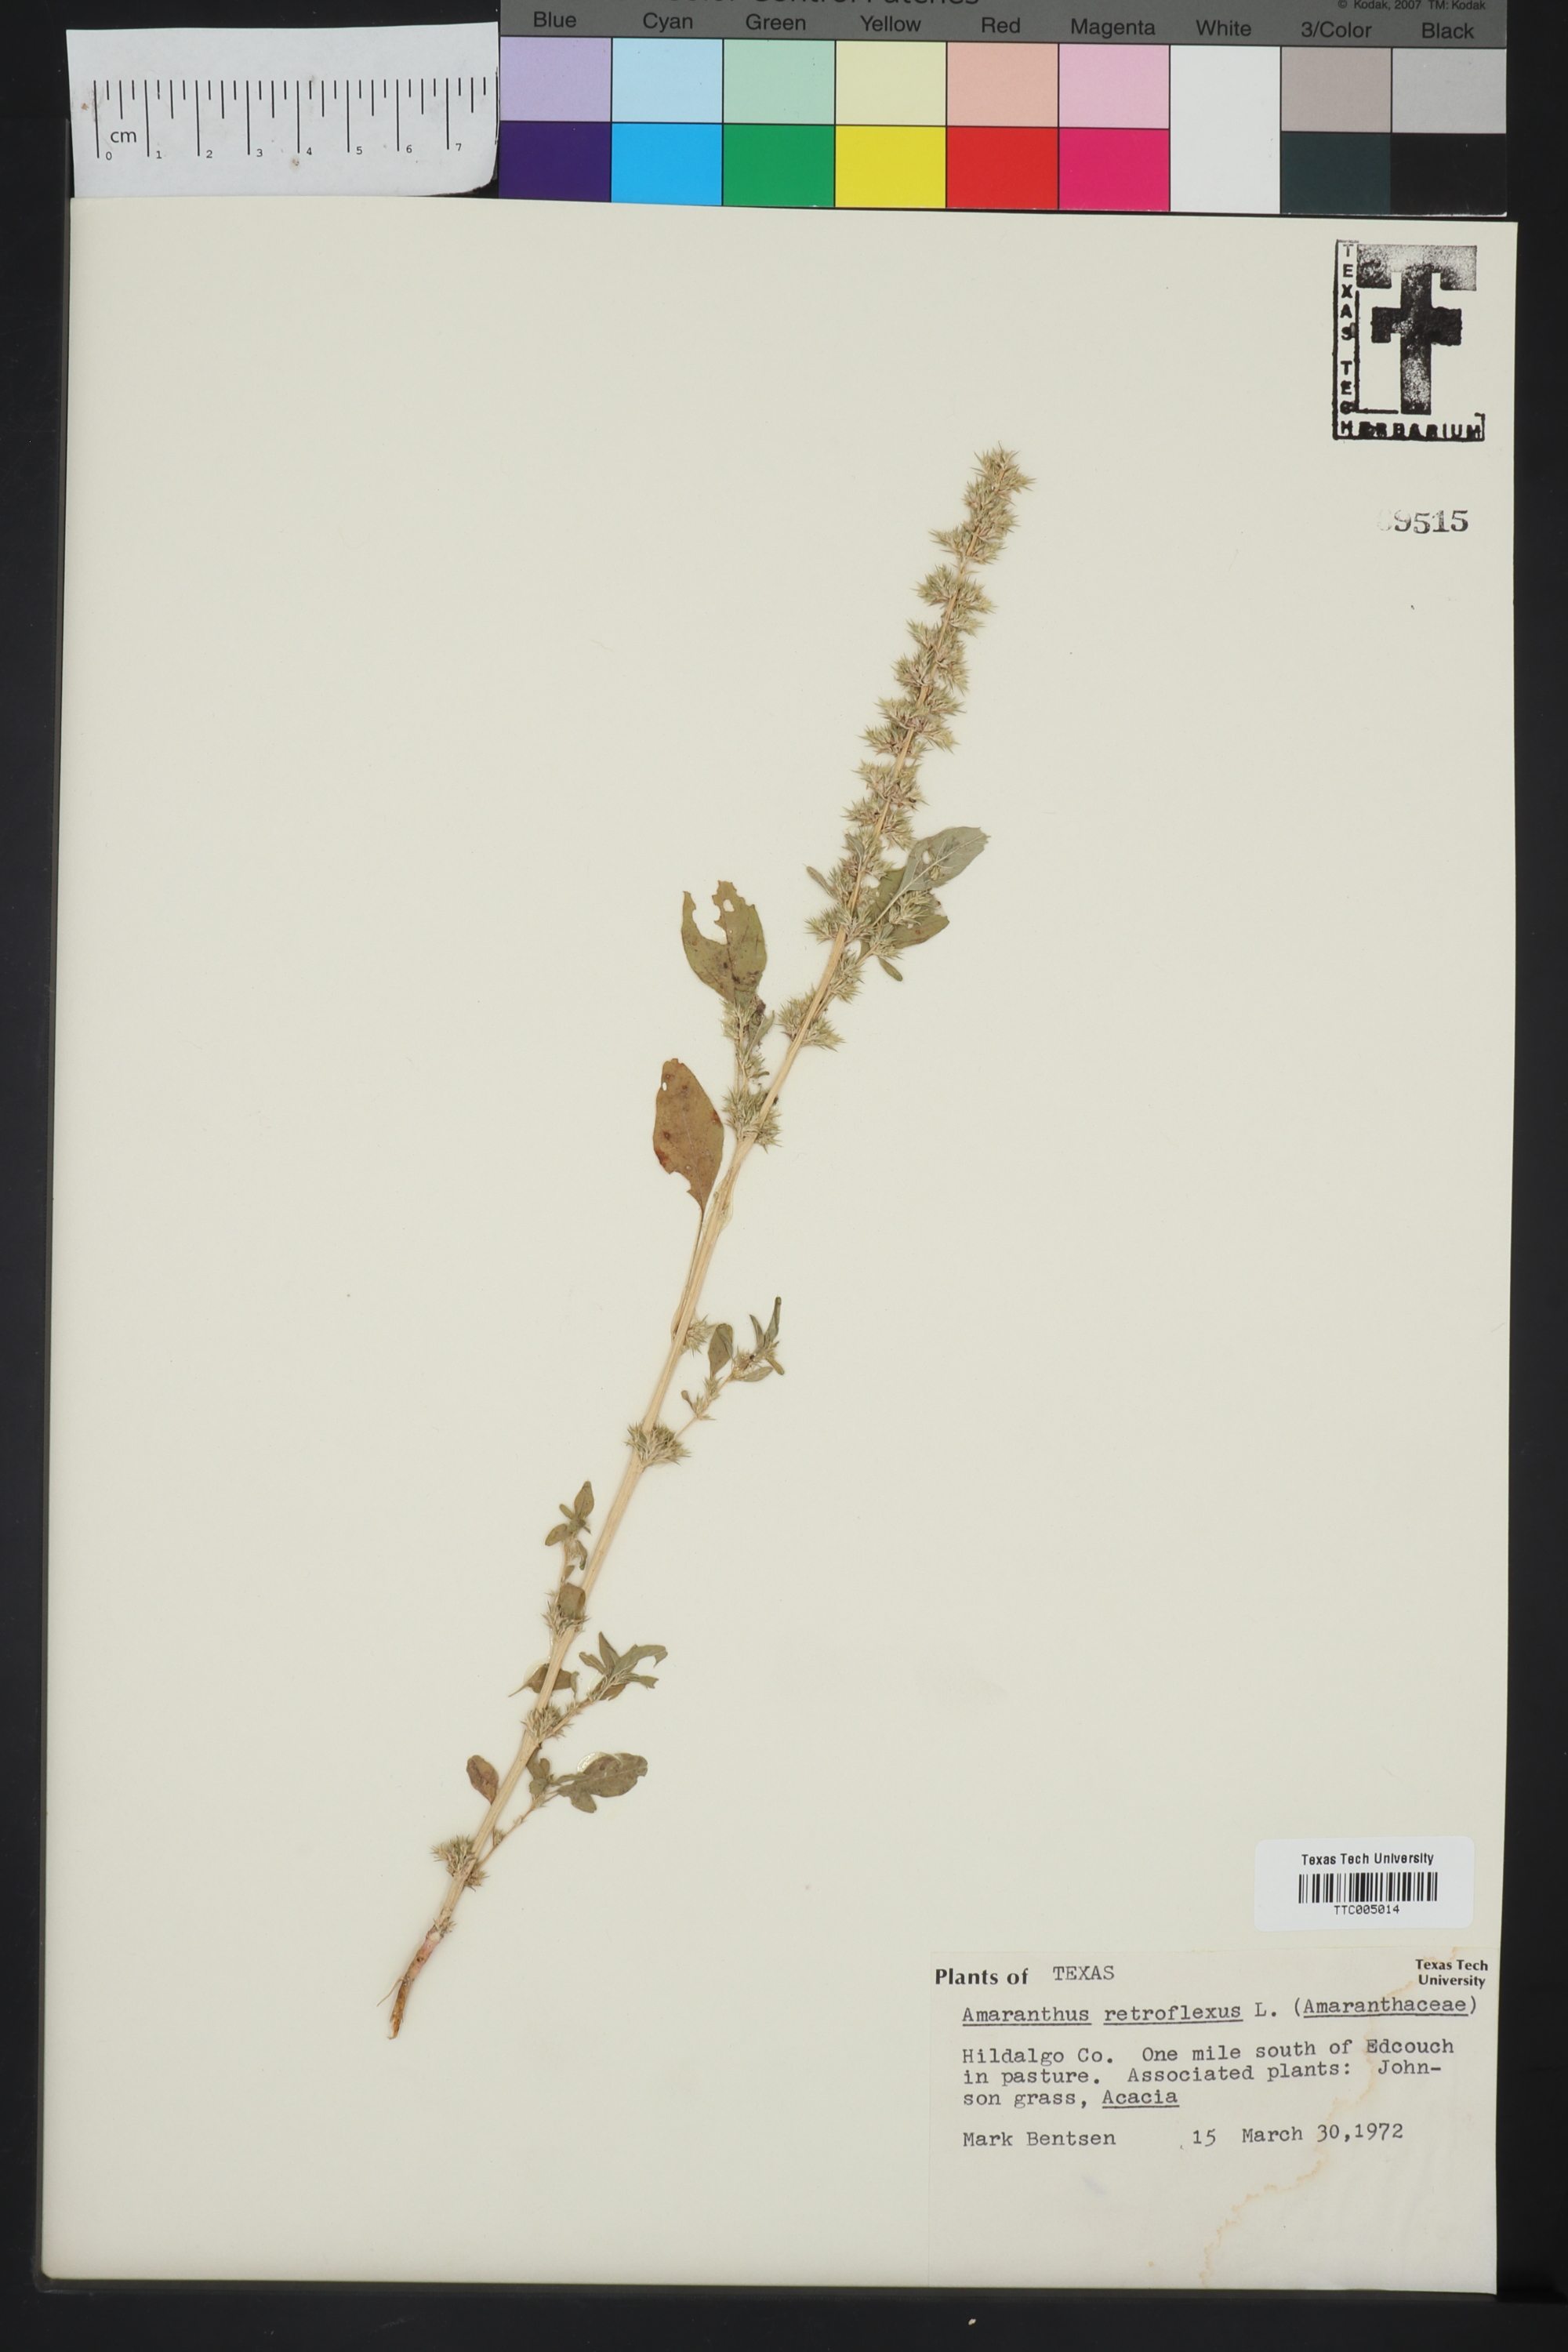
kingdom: Plantae
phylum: Tracheophyta
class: Magnoliopsida
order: Caryophyllales
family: Amaranthaceae
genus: Amaranthus
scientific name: Amaranthus retroflexus
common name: Redroot amaranth
